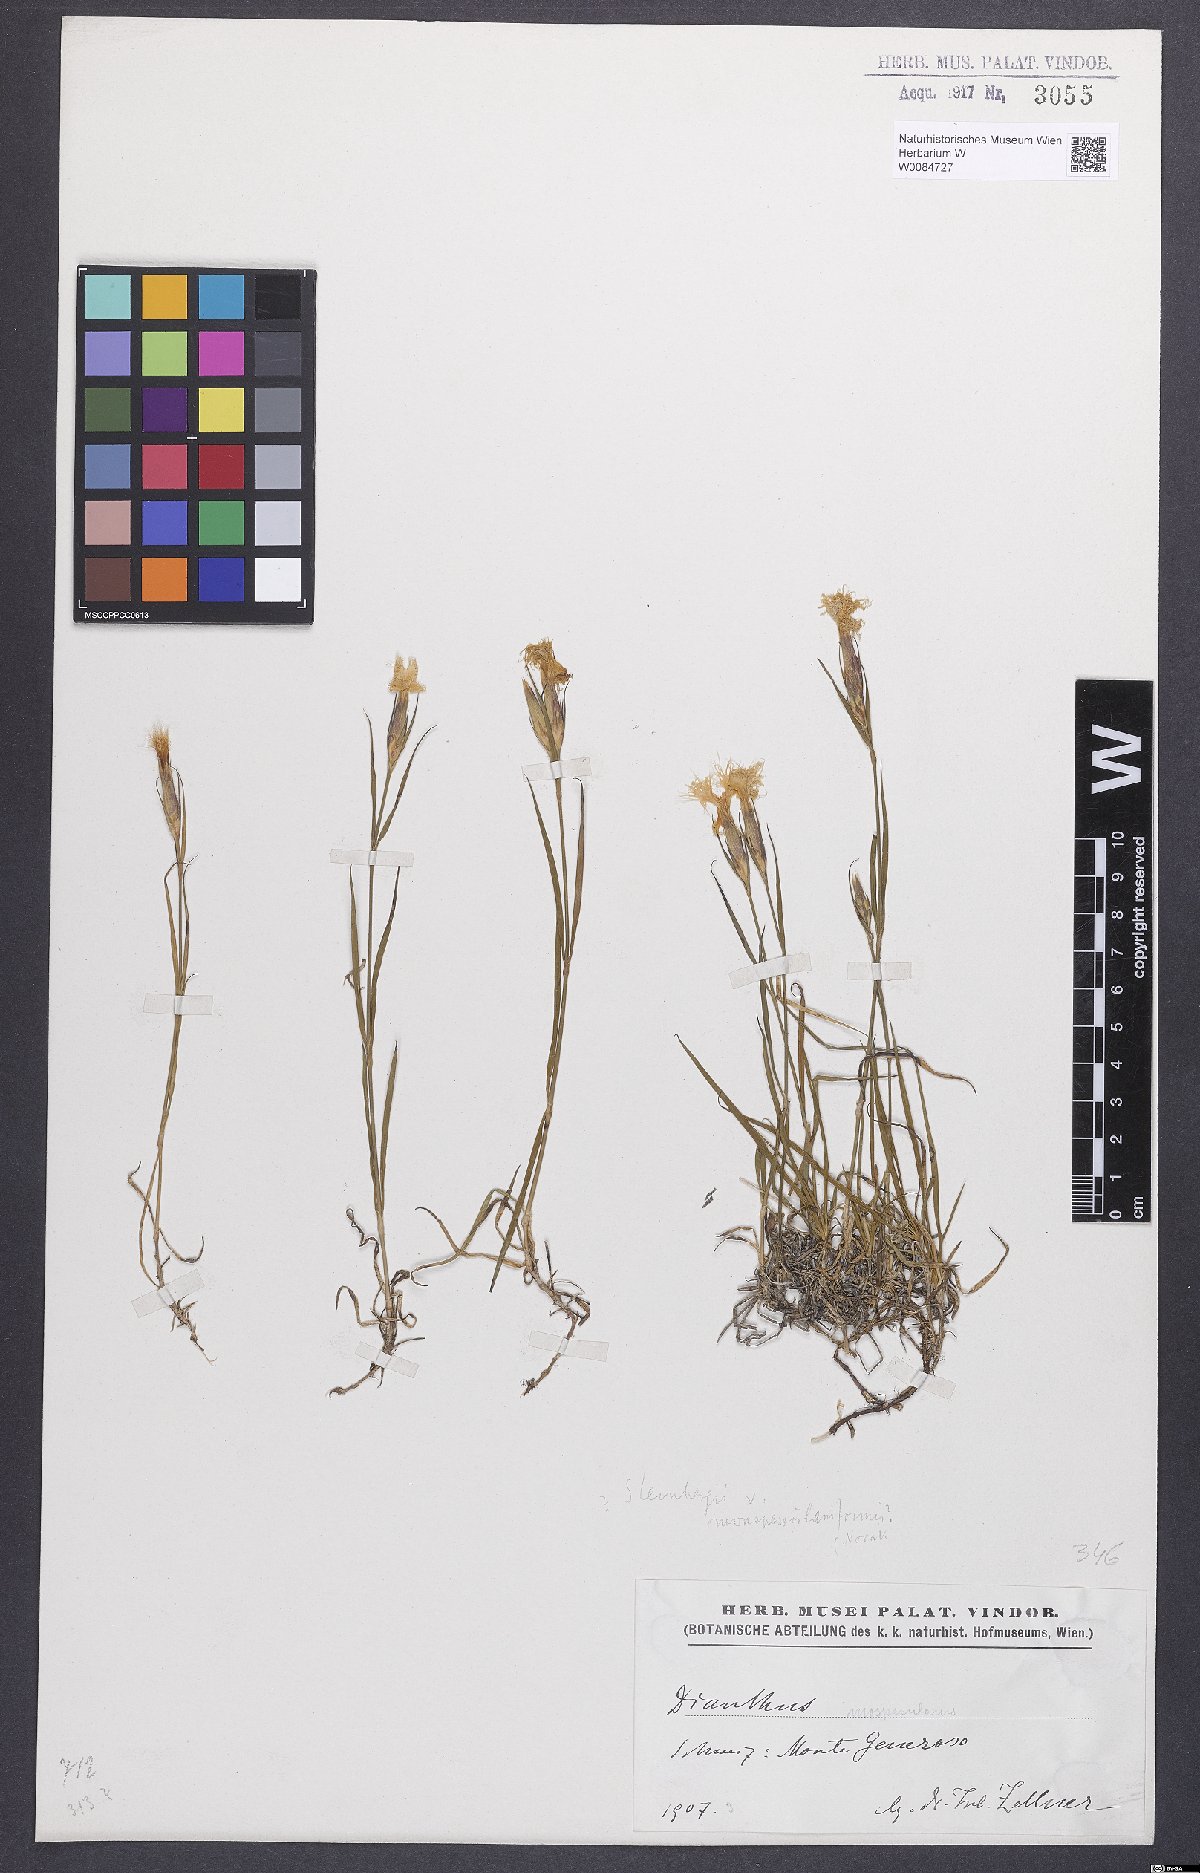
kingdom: Plantae
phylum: Tracheophyta
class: Magnoliopsida
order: Caryophyllales
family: Caryophyllaceae
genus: Dianthus
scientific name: Dianthus hyssopifolius
